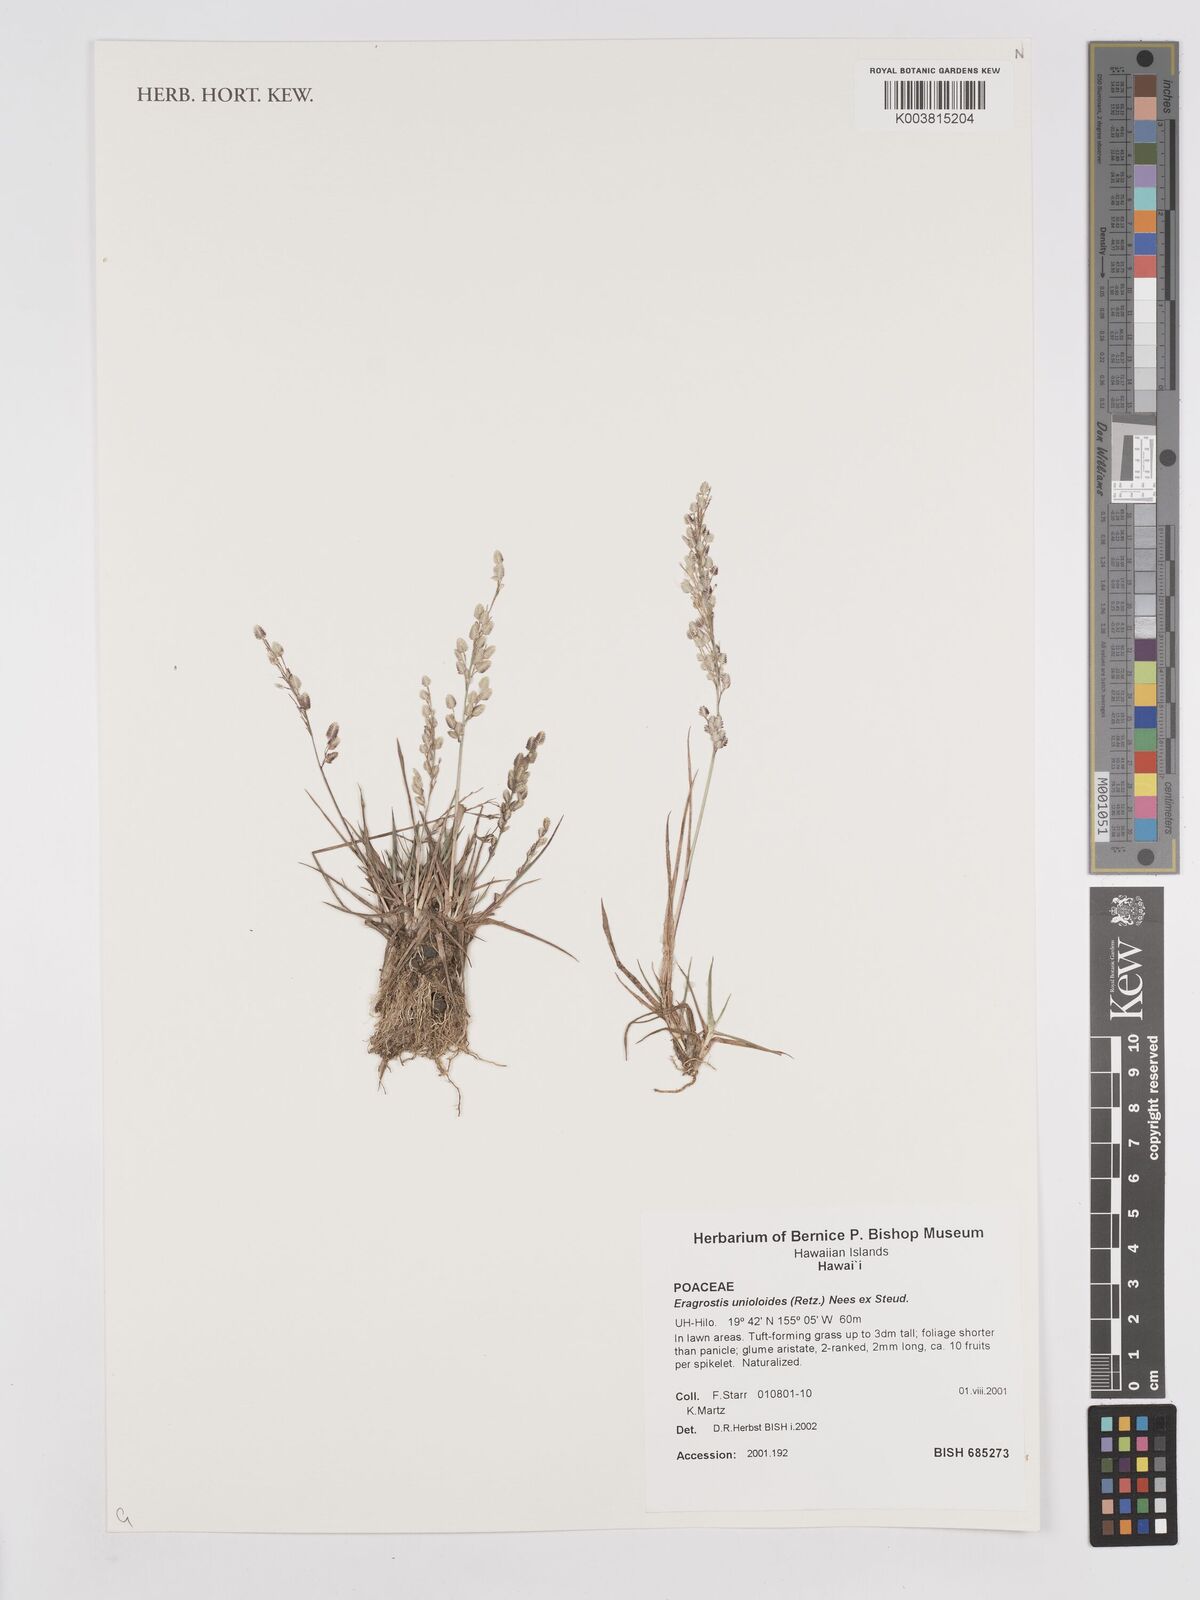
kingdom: Plantae
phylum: Tracheophyta
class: Liliopsida
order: Poales
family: Poaceae
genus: Eragrostis
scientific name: Eragrostis unioloides
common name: Chinese lovegrass
